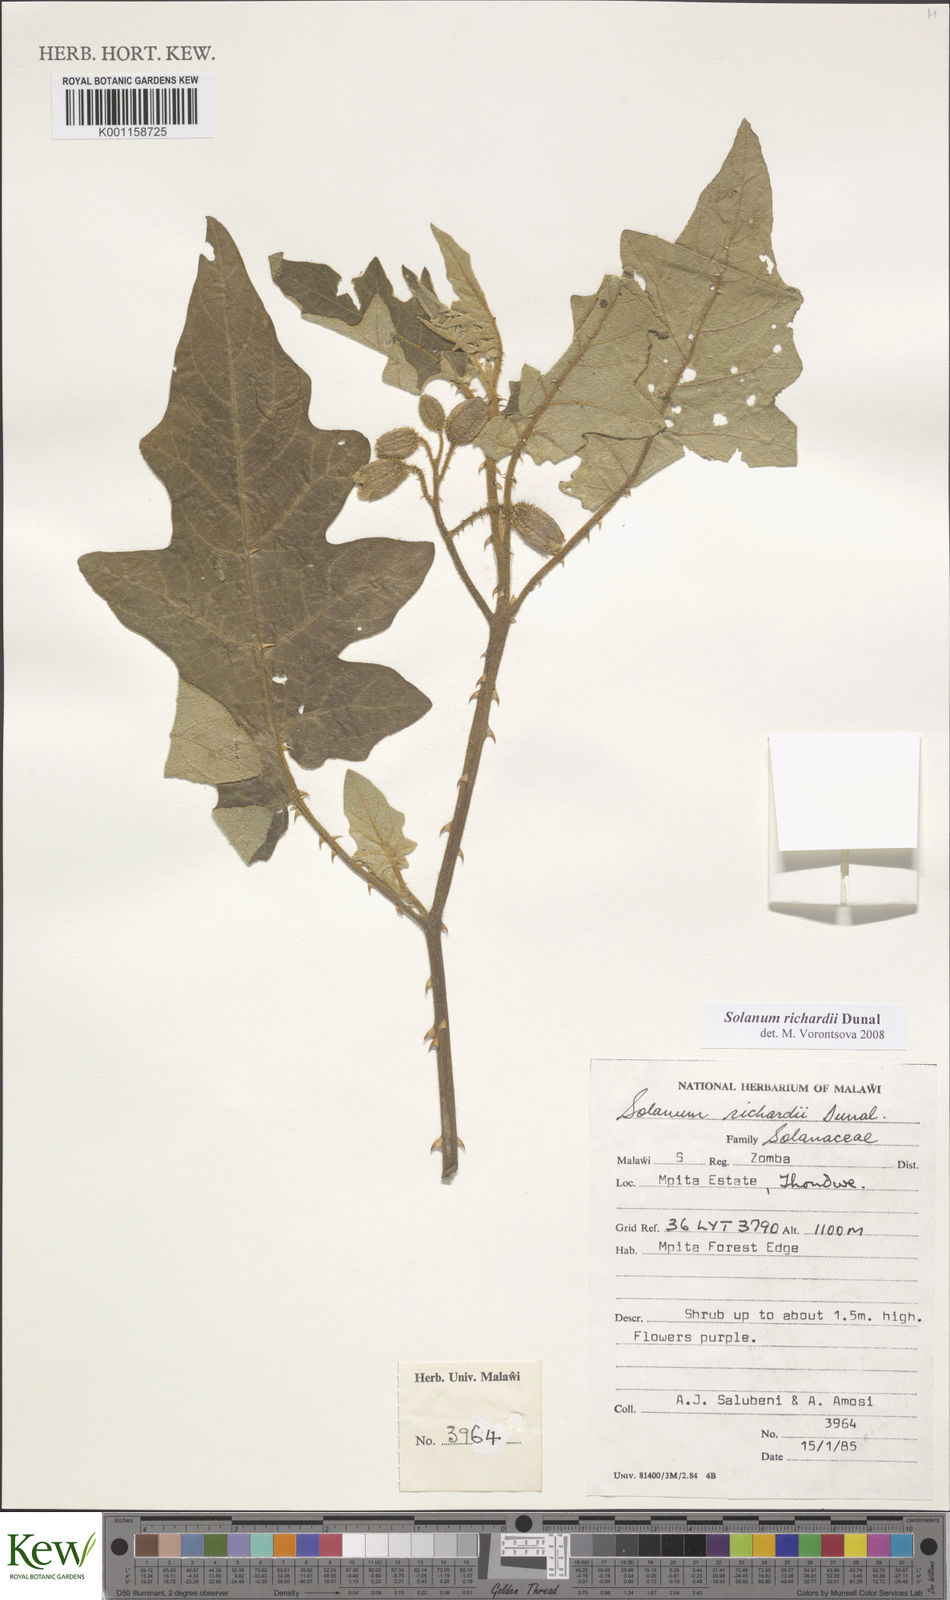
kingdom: Plantae
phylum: Tracheophyta
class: Magnoliopsida
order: Solanales
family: Solanaceae
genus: Solanum
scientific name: Solanum richardii
